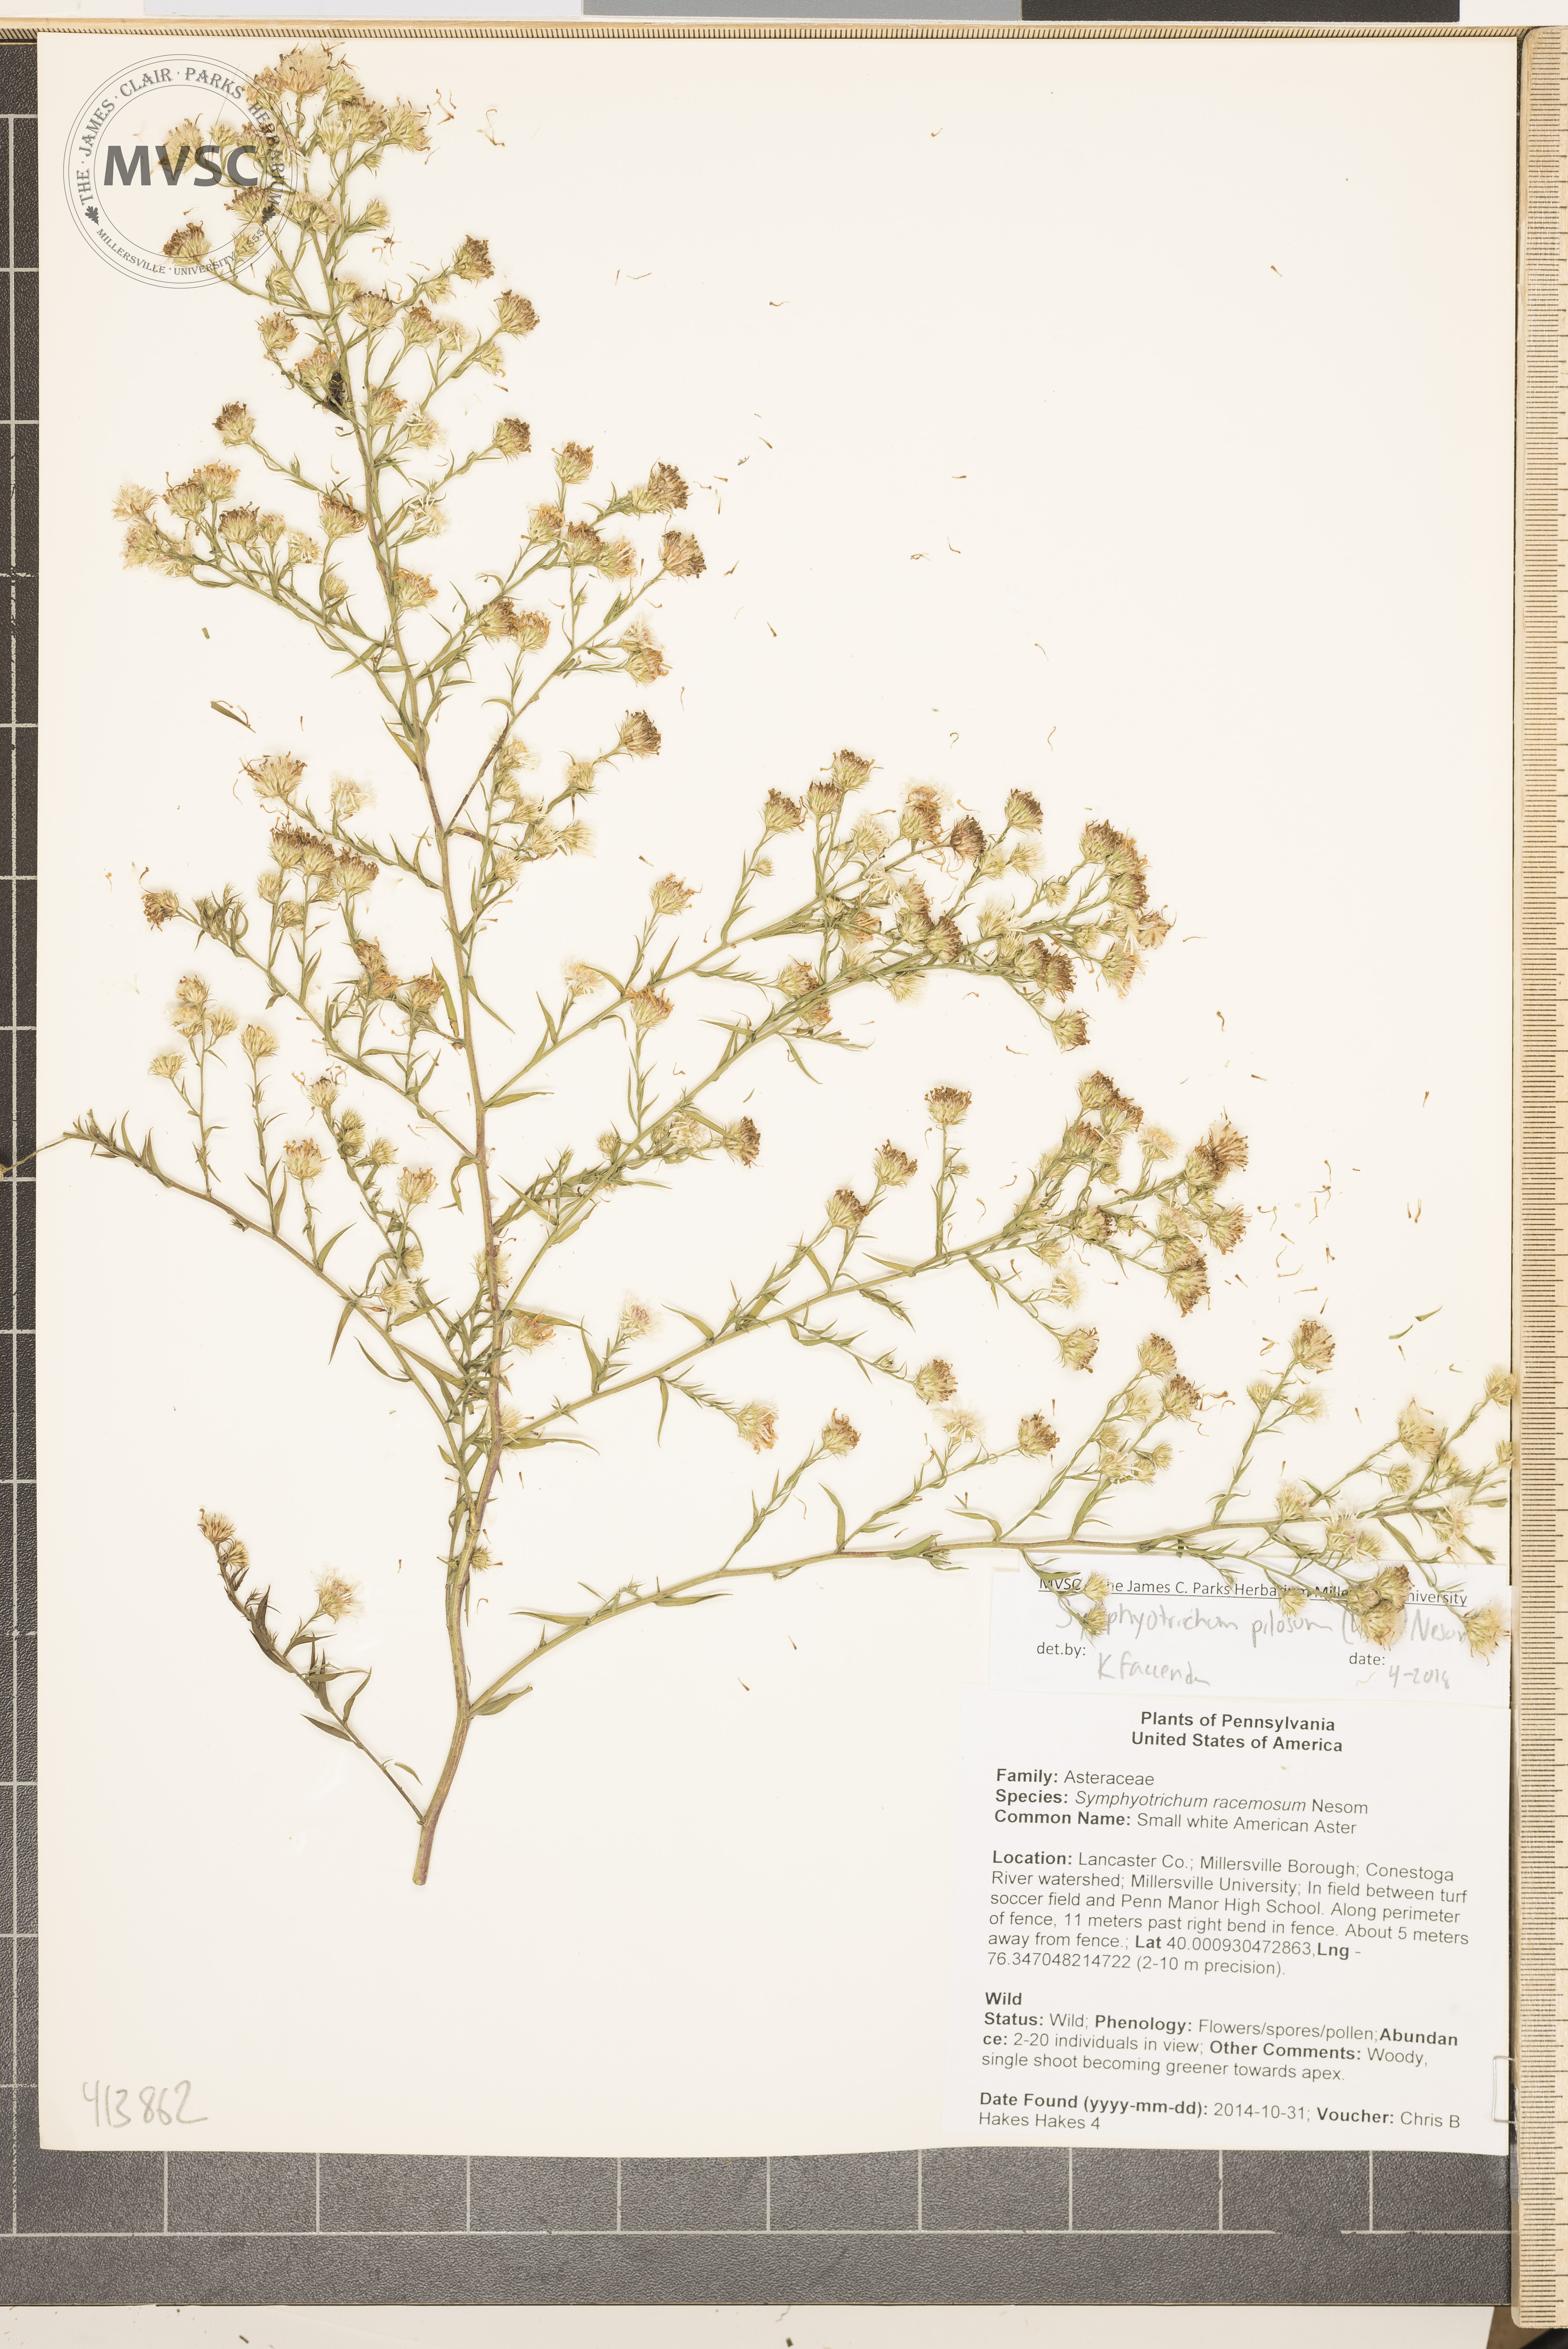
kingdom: Plantae
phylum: Tracheophyta
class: Magnoliopsida
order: Asterales
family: Asteraceae
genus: Symphyotrichum
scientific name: Symphyotrichum pilosum
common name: Awl aster
